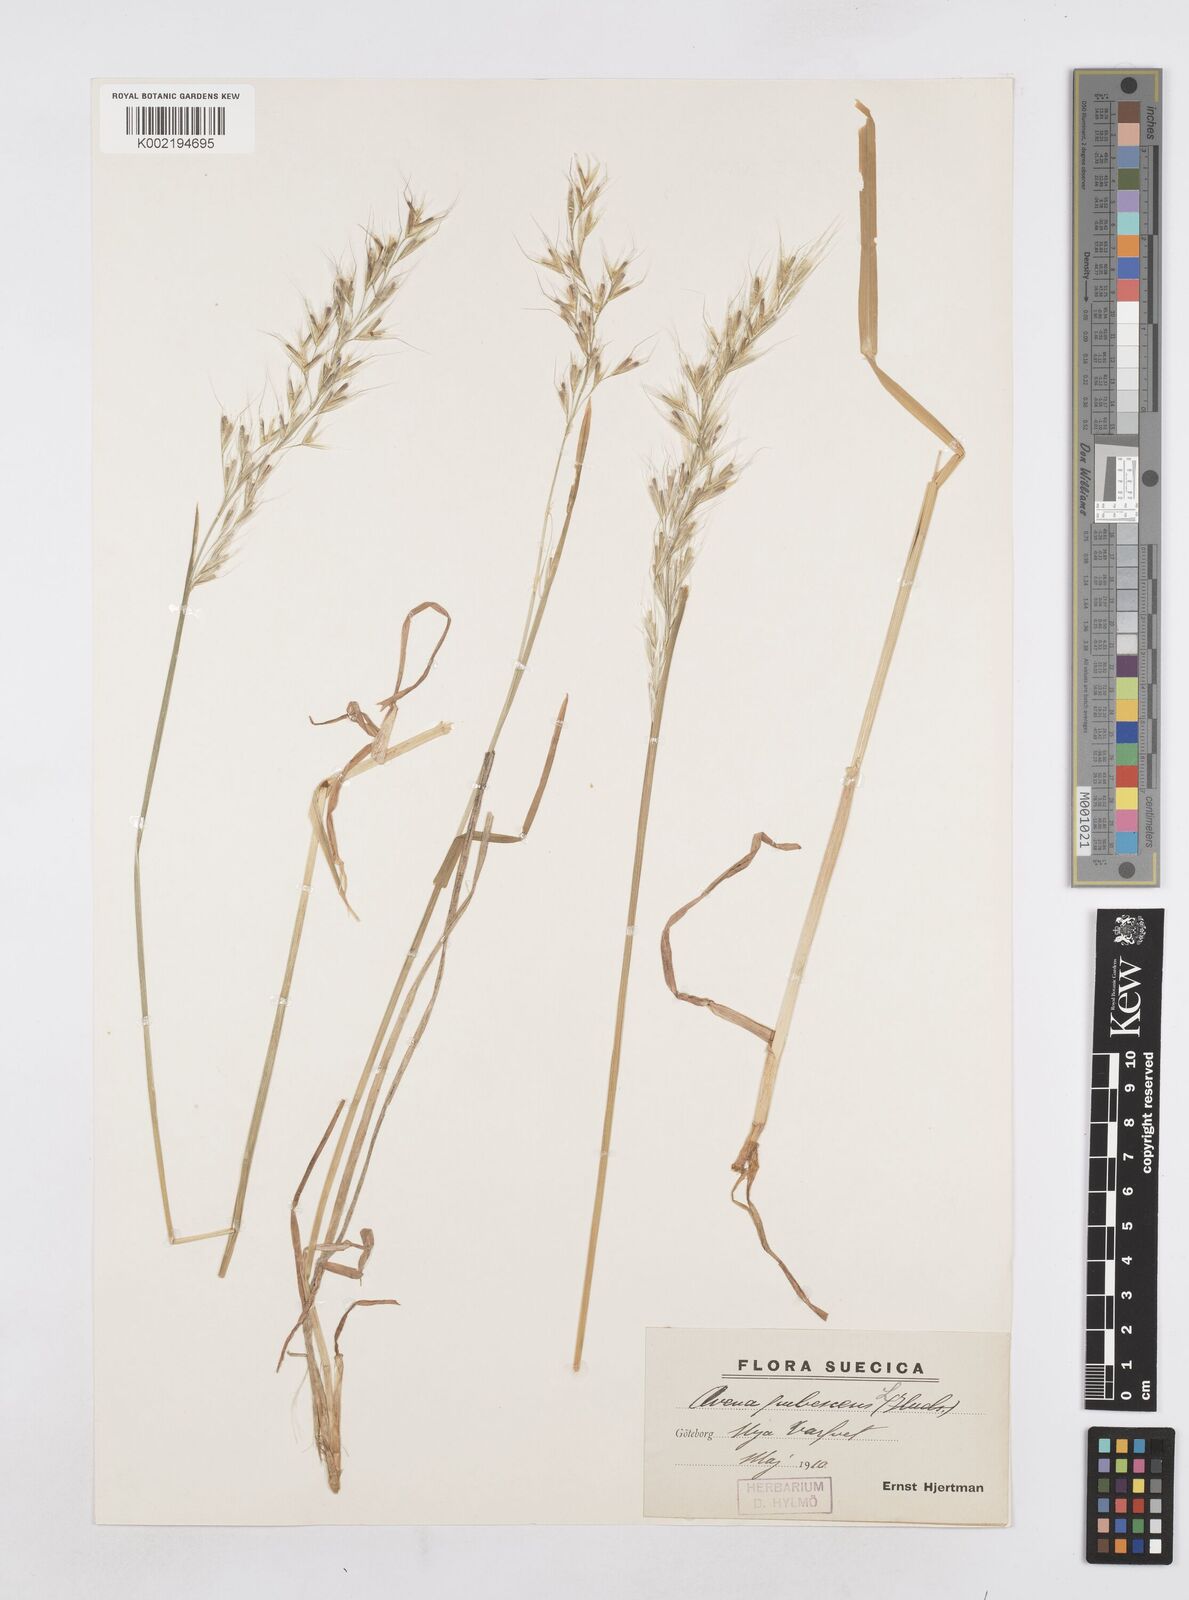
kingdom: Plantae
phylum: Tracheophyta
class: Liliopsida
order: Poales
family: Poaceae
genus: Avenula
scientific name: Avenula pubescens
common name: Downy alpine oatgrass
